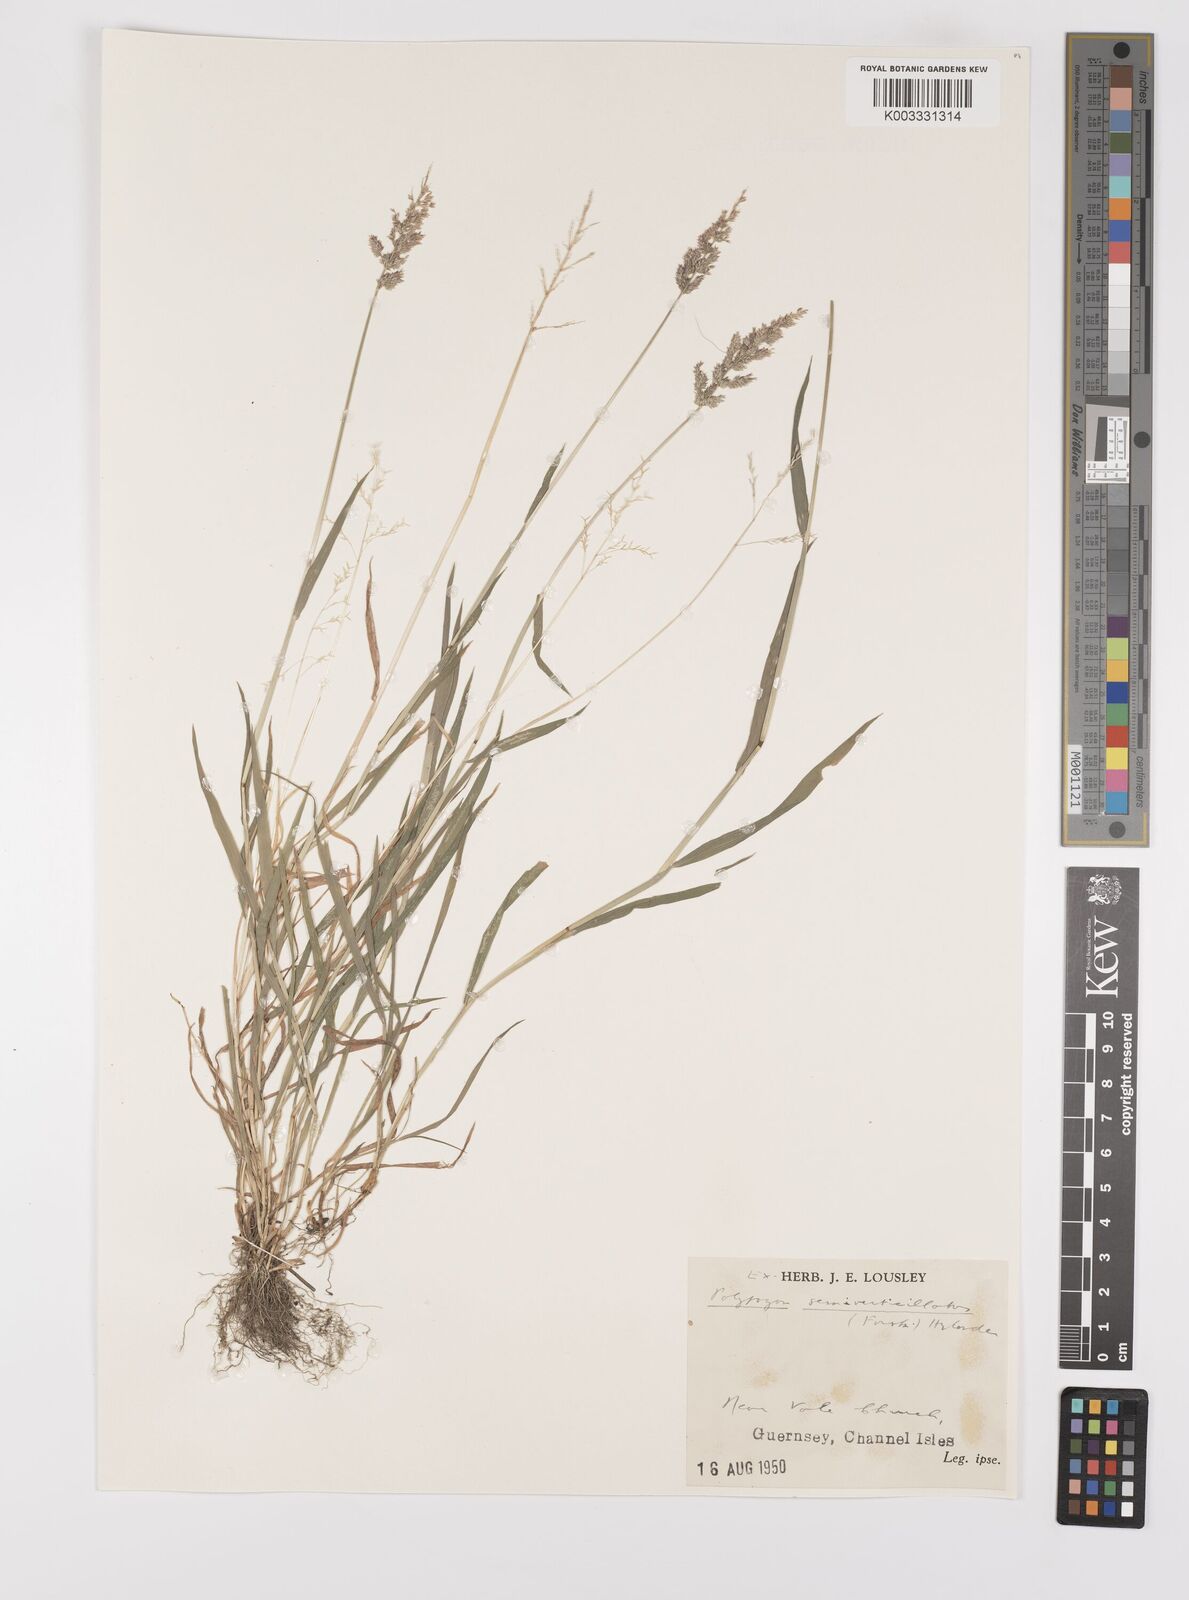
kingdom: Plantae
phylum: Tracheophyta
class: Liliopsida
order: Poales
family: Poaceae
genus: Polypogon
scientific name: Polypogon viridis
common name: Water bent
